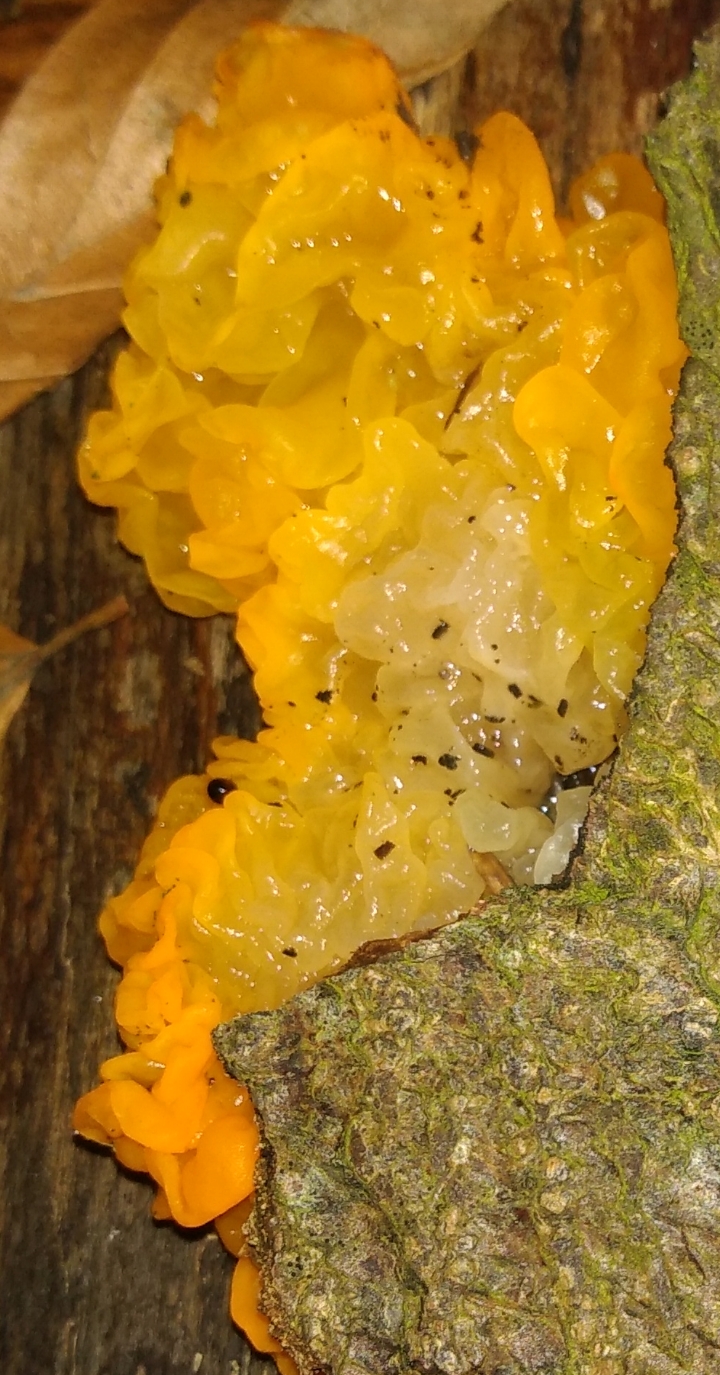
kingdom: Fungi
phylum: Basidiomycota
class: Tremellomycetes
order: Tremellales
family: Tremellaceae
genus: Tremella
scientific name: Tremella mesenterica
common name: gul bævresvamp
